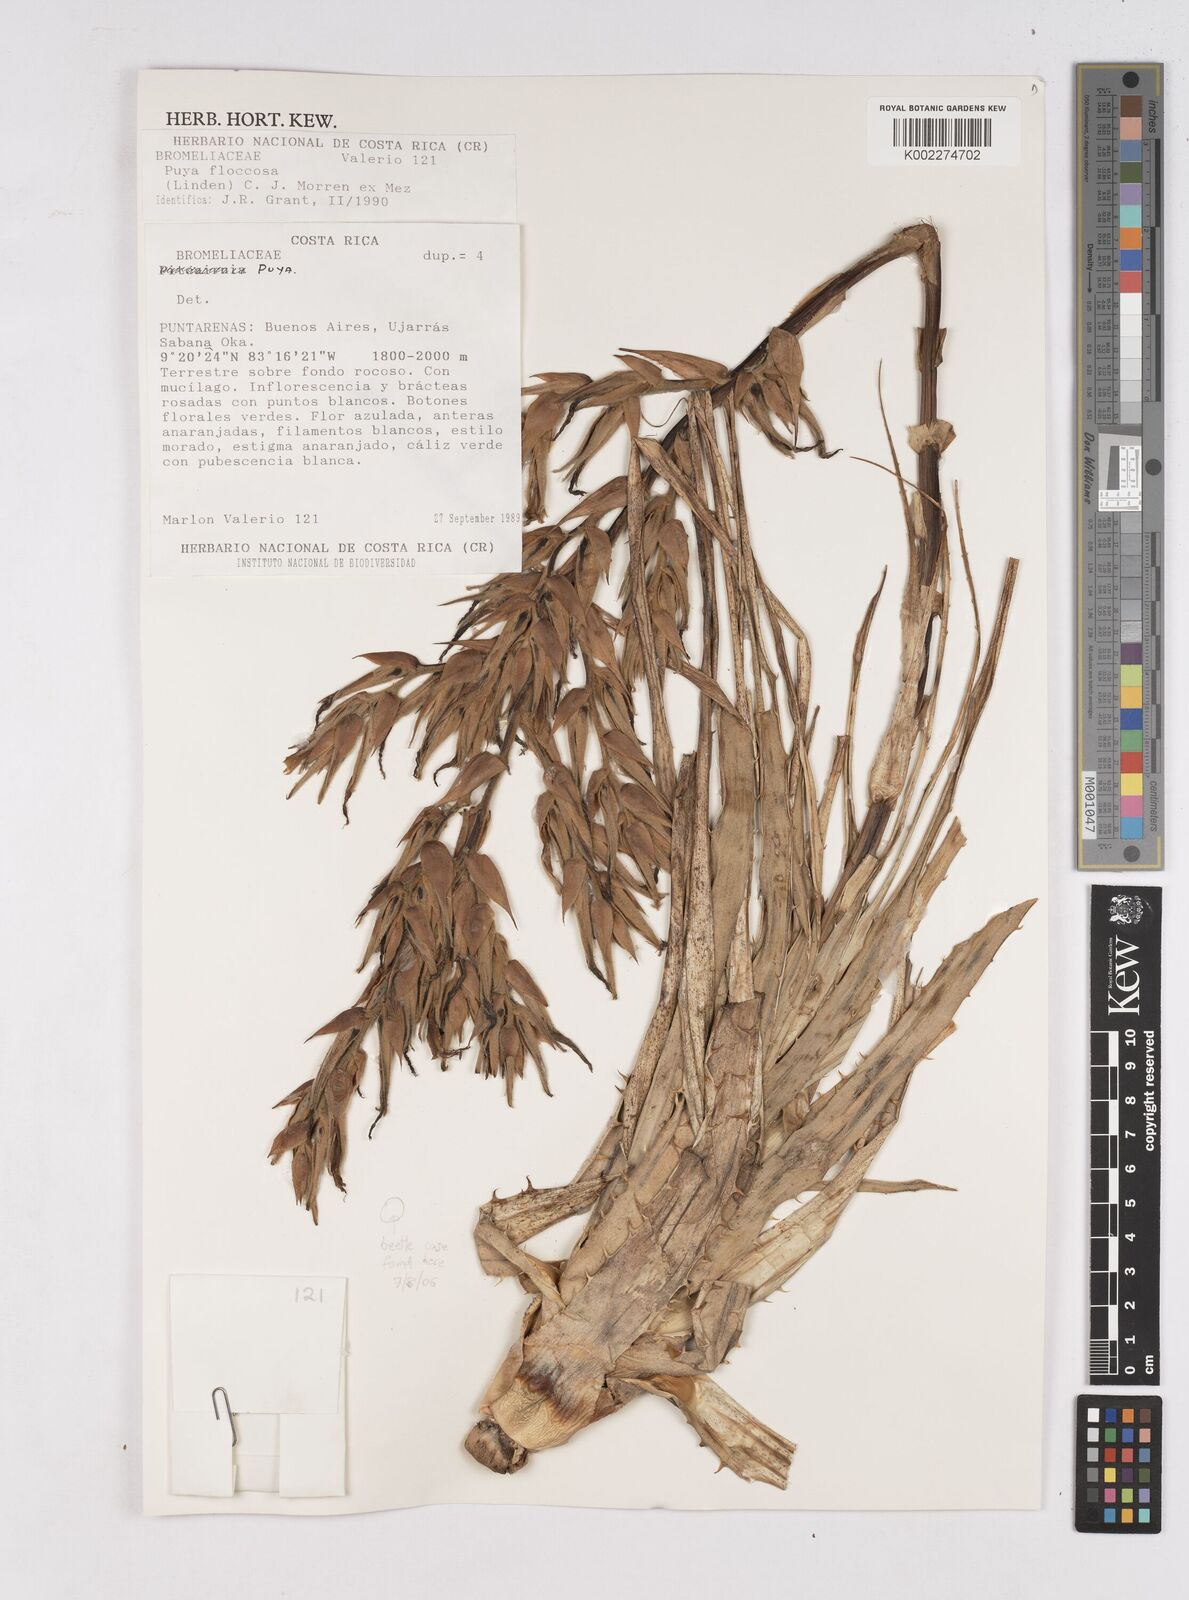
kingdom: Plantae
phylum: Tracheophyta
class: Liliopsida
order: Poales
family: Bromeliaceae
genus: Puya
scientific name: Puya floccosa
